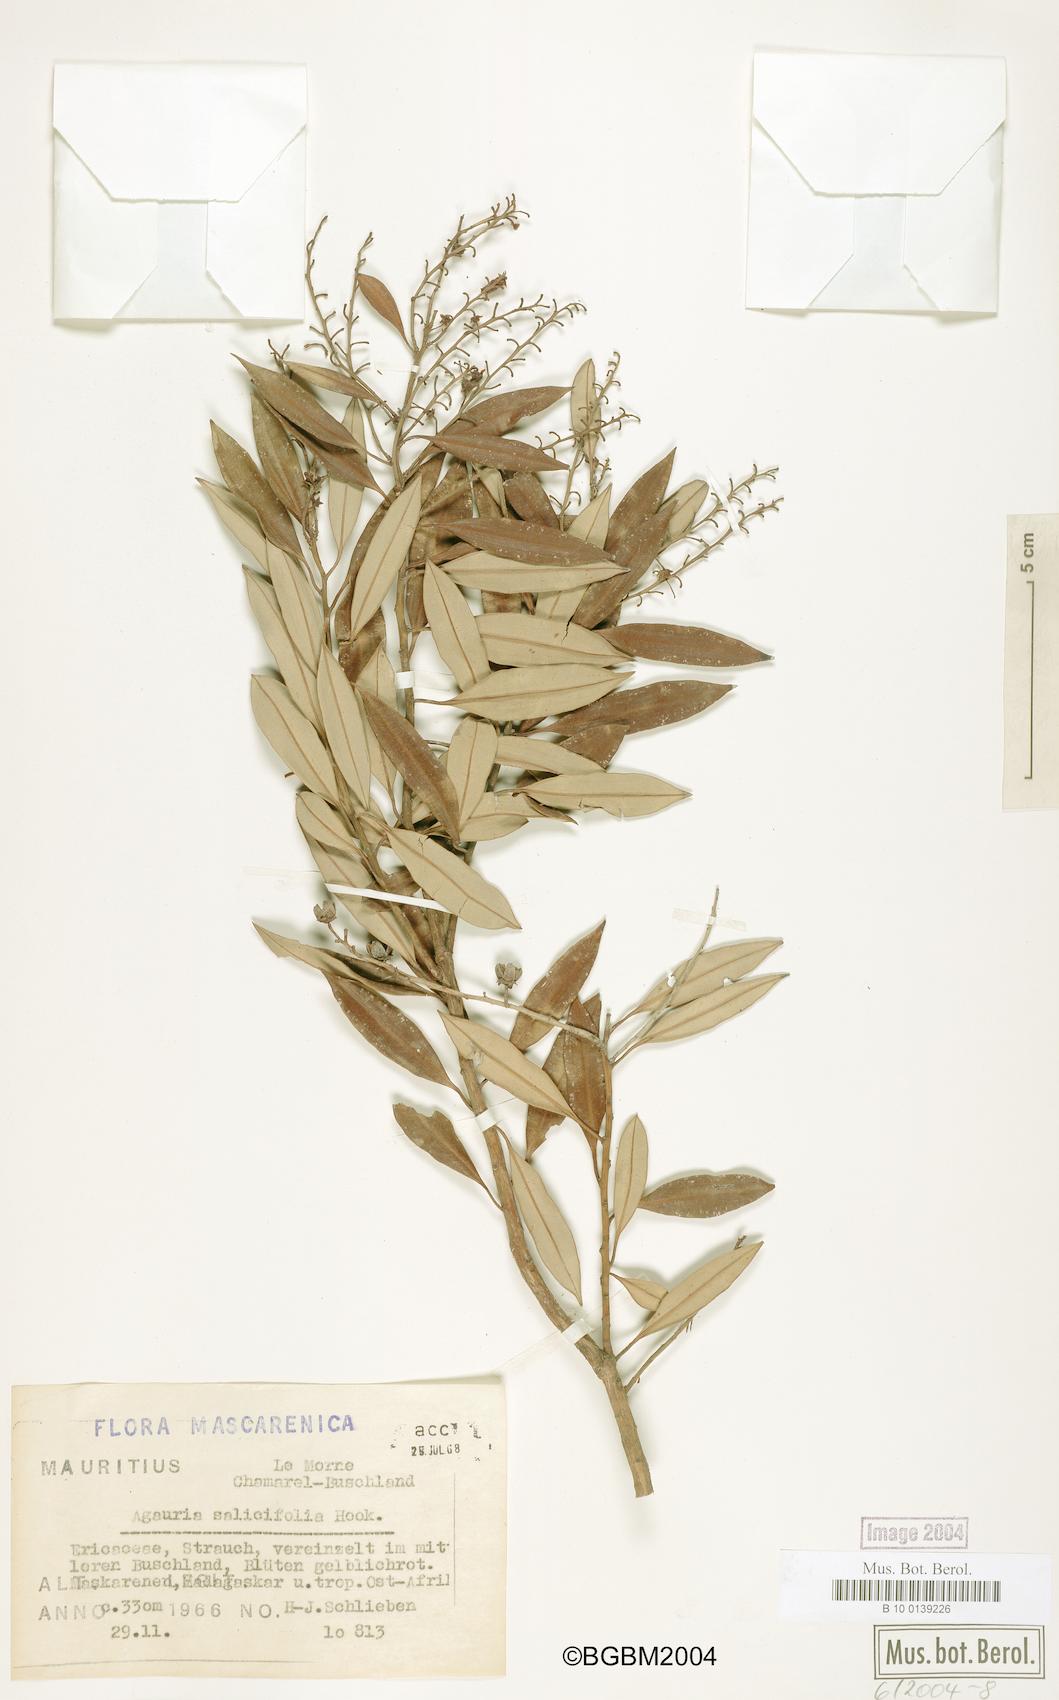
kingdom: Plantae
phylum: Tracheophyta
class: Magnoliopsida
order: Ericales
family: Ericaceae
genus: Agarista
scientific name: Agarista salicifolia
